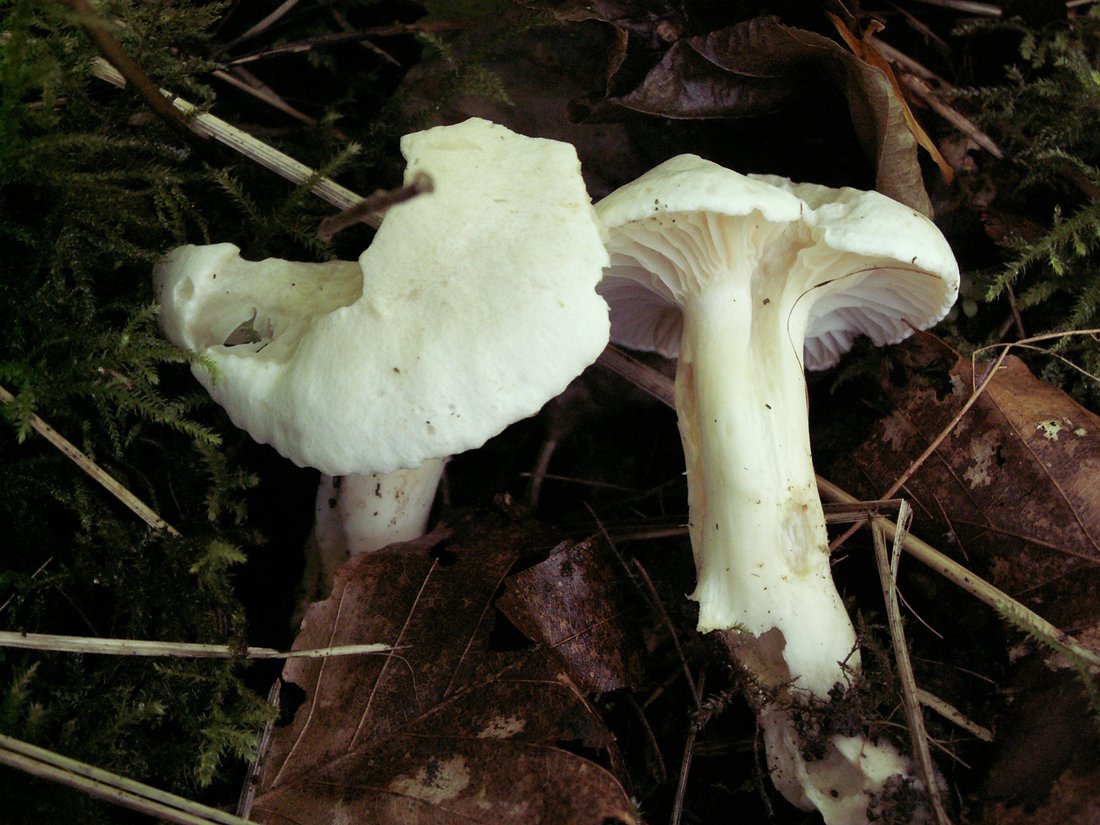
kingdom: Fungi
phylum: Basidiomycota
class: Agaricomycetes
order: Agaricales
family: Hygrophoraceae
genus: Cuphophyllus
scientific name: Cuphophyllus pratensis
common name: bleg vokshat
